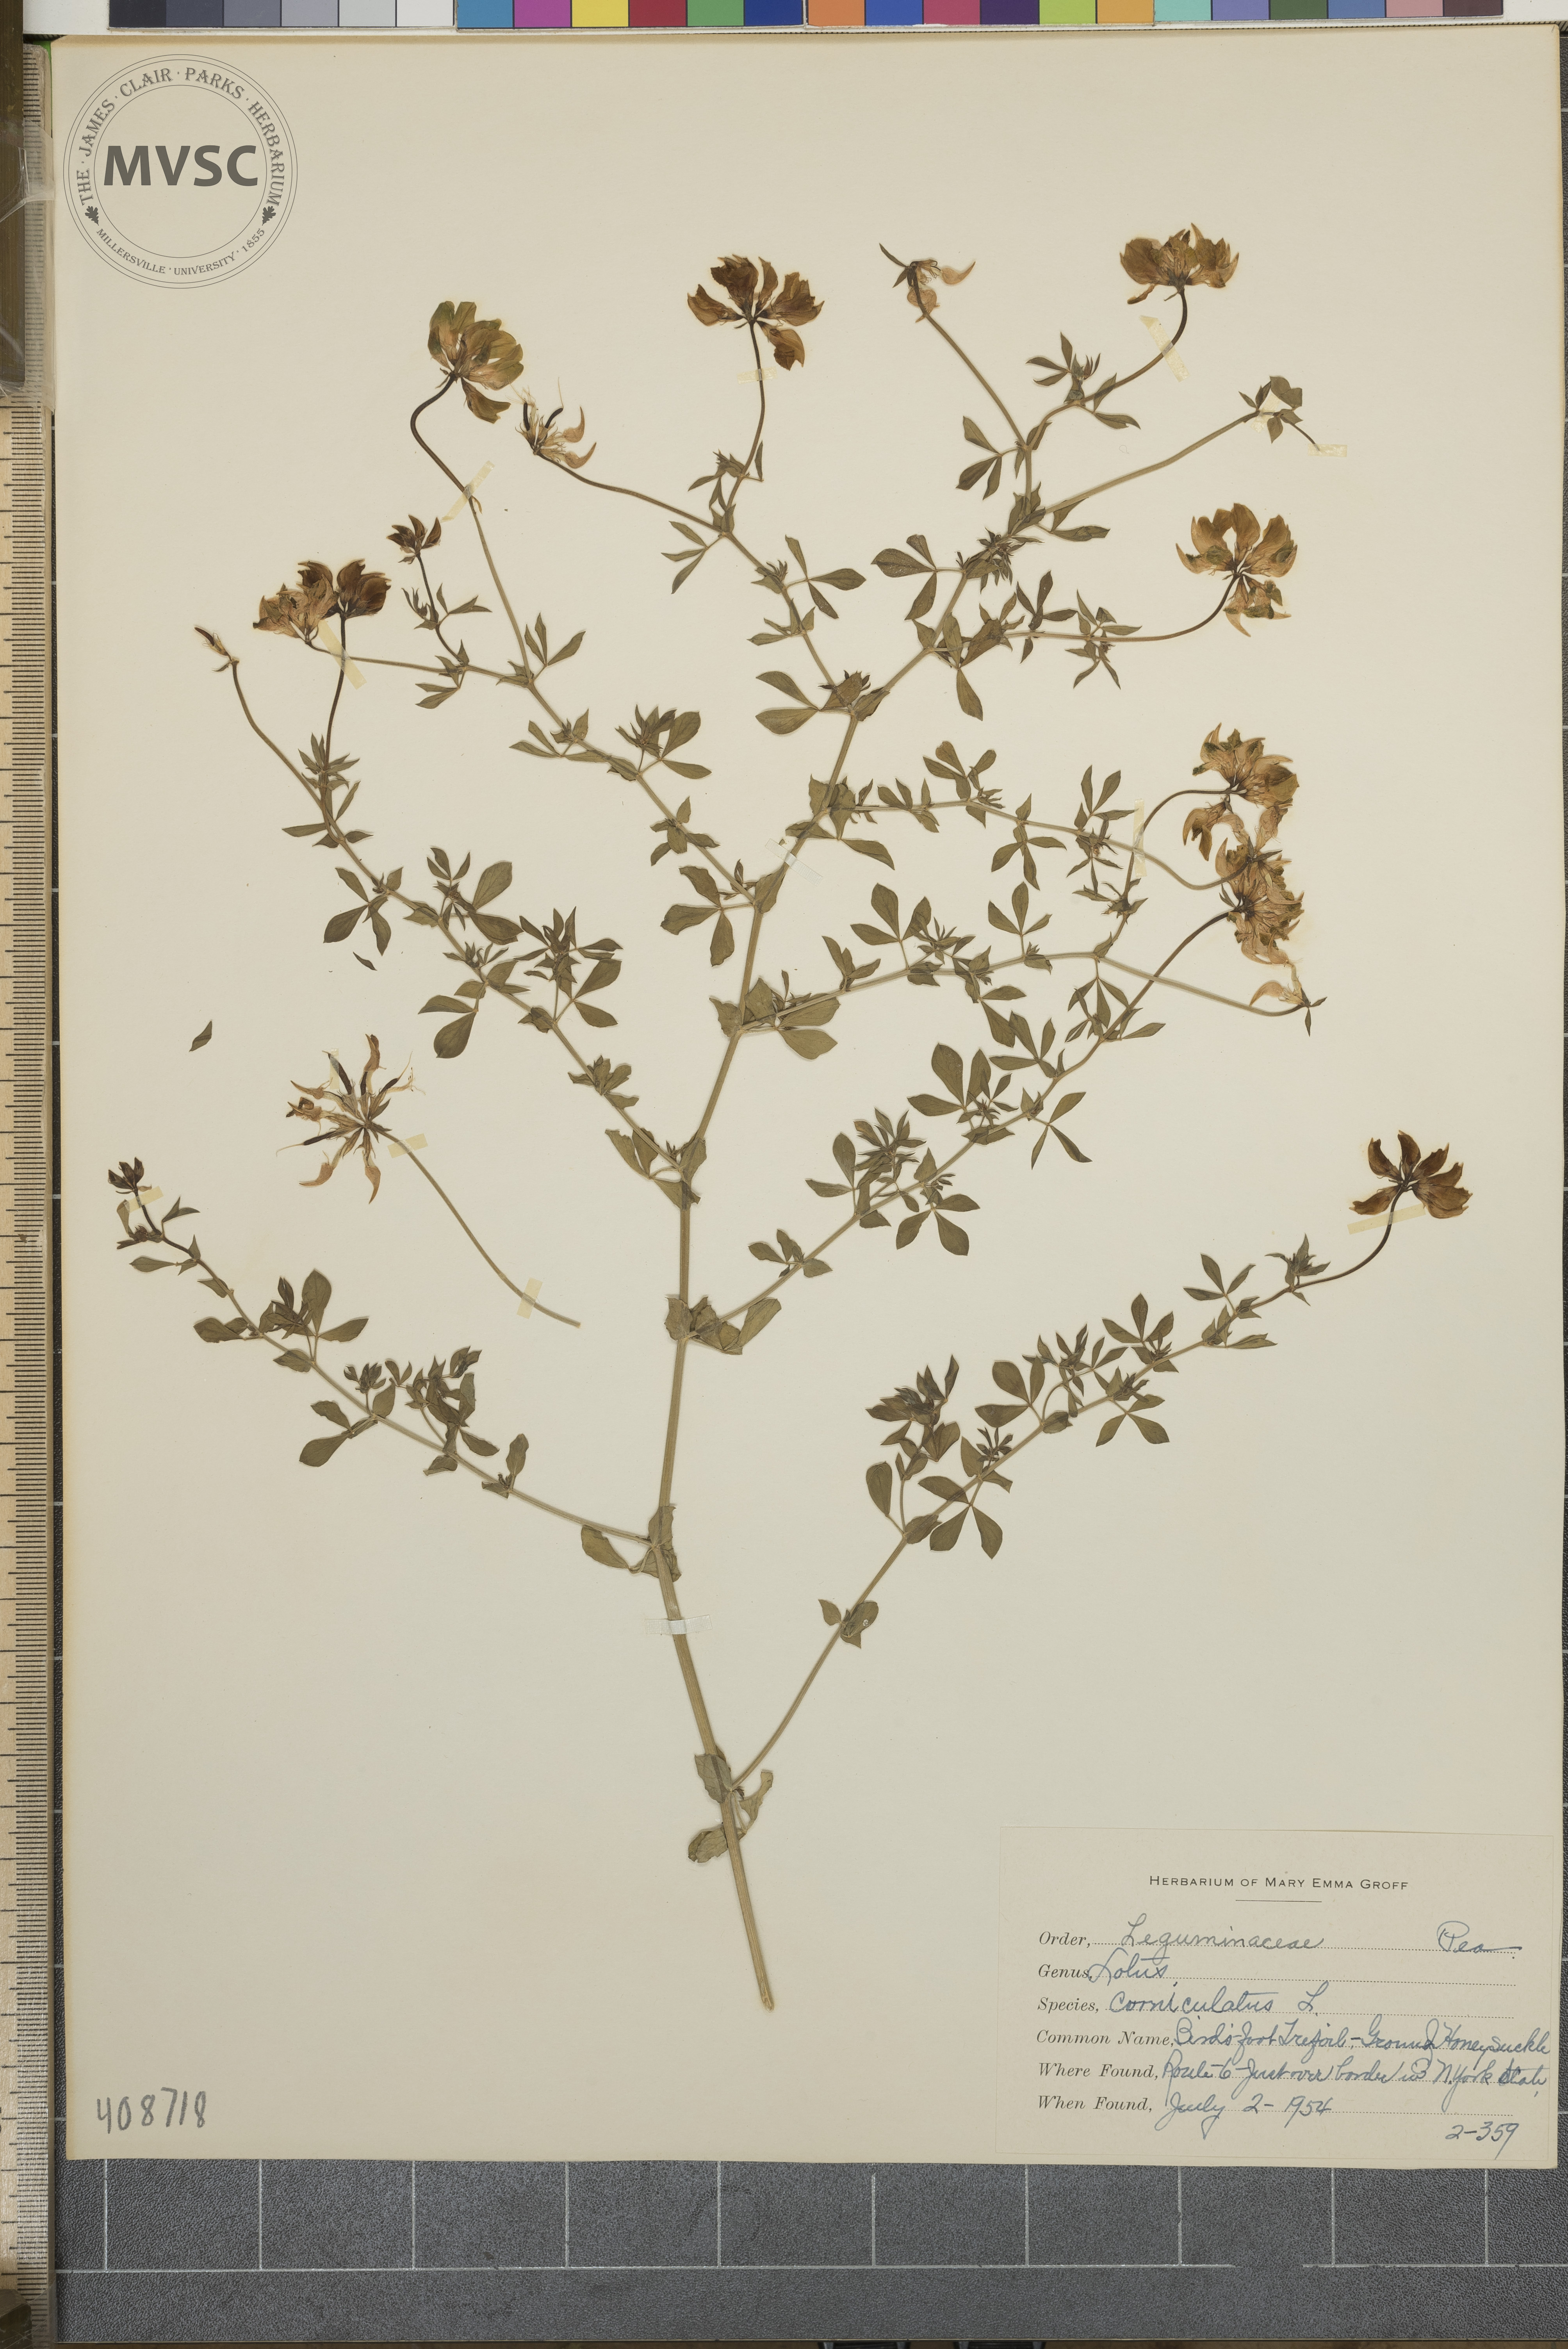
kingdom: Plantae
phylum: Tracheophyta
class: Magnoliopsida
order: Fabales
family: Fabaceae
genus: Lotus
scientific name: Lotus corniculatus
